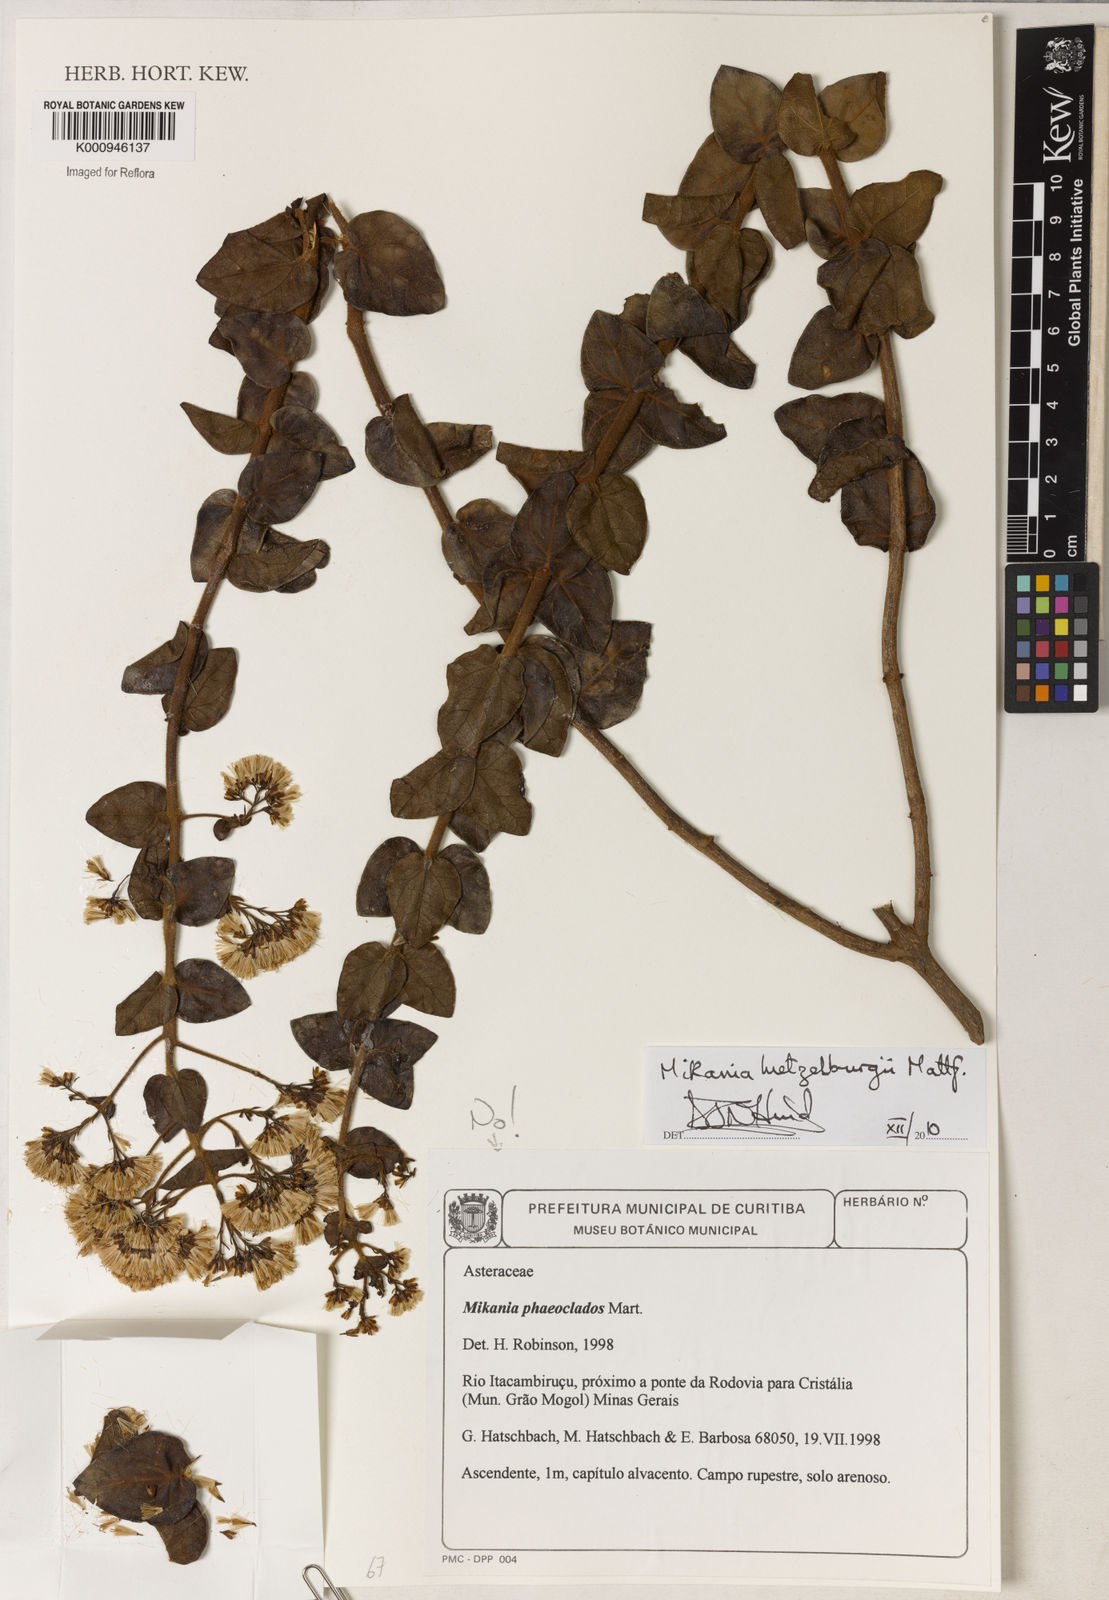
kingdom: Plantae
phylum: Tracheophyta
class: Magnoliopsida
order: Asterales
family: Asteraceae
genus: Mikania
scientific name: Mikania luetzelburgii
